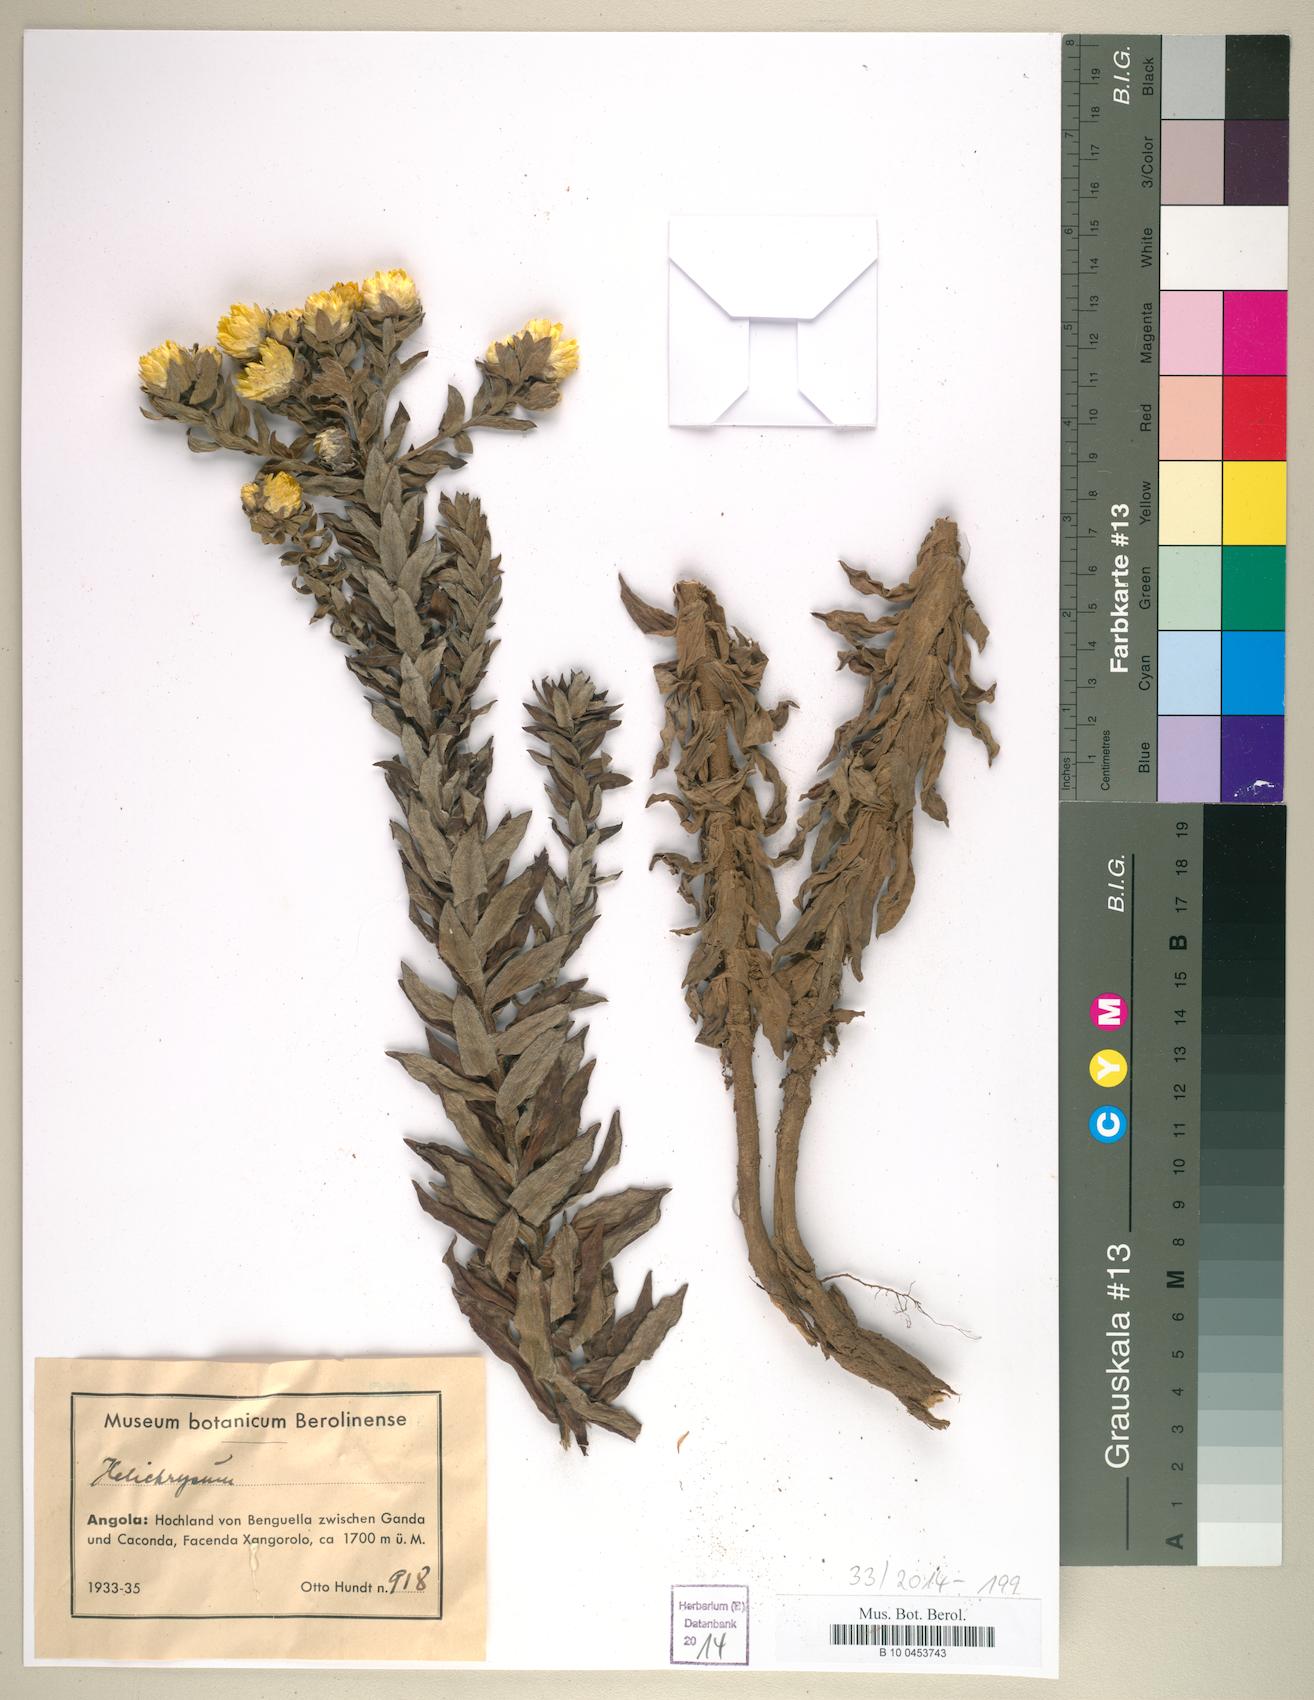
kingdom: Plantae
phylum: Tracheophyta
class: Magnoliopsida
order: Asterales
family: Asteraceae
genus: Helichrysum
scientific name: Helichrysum
